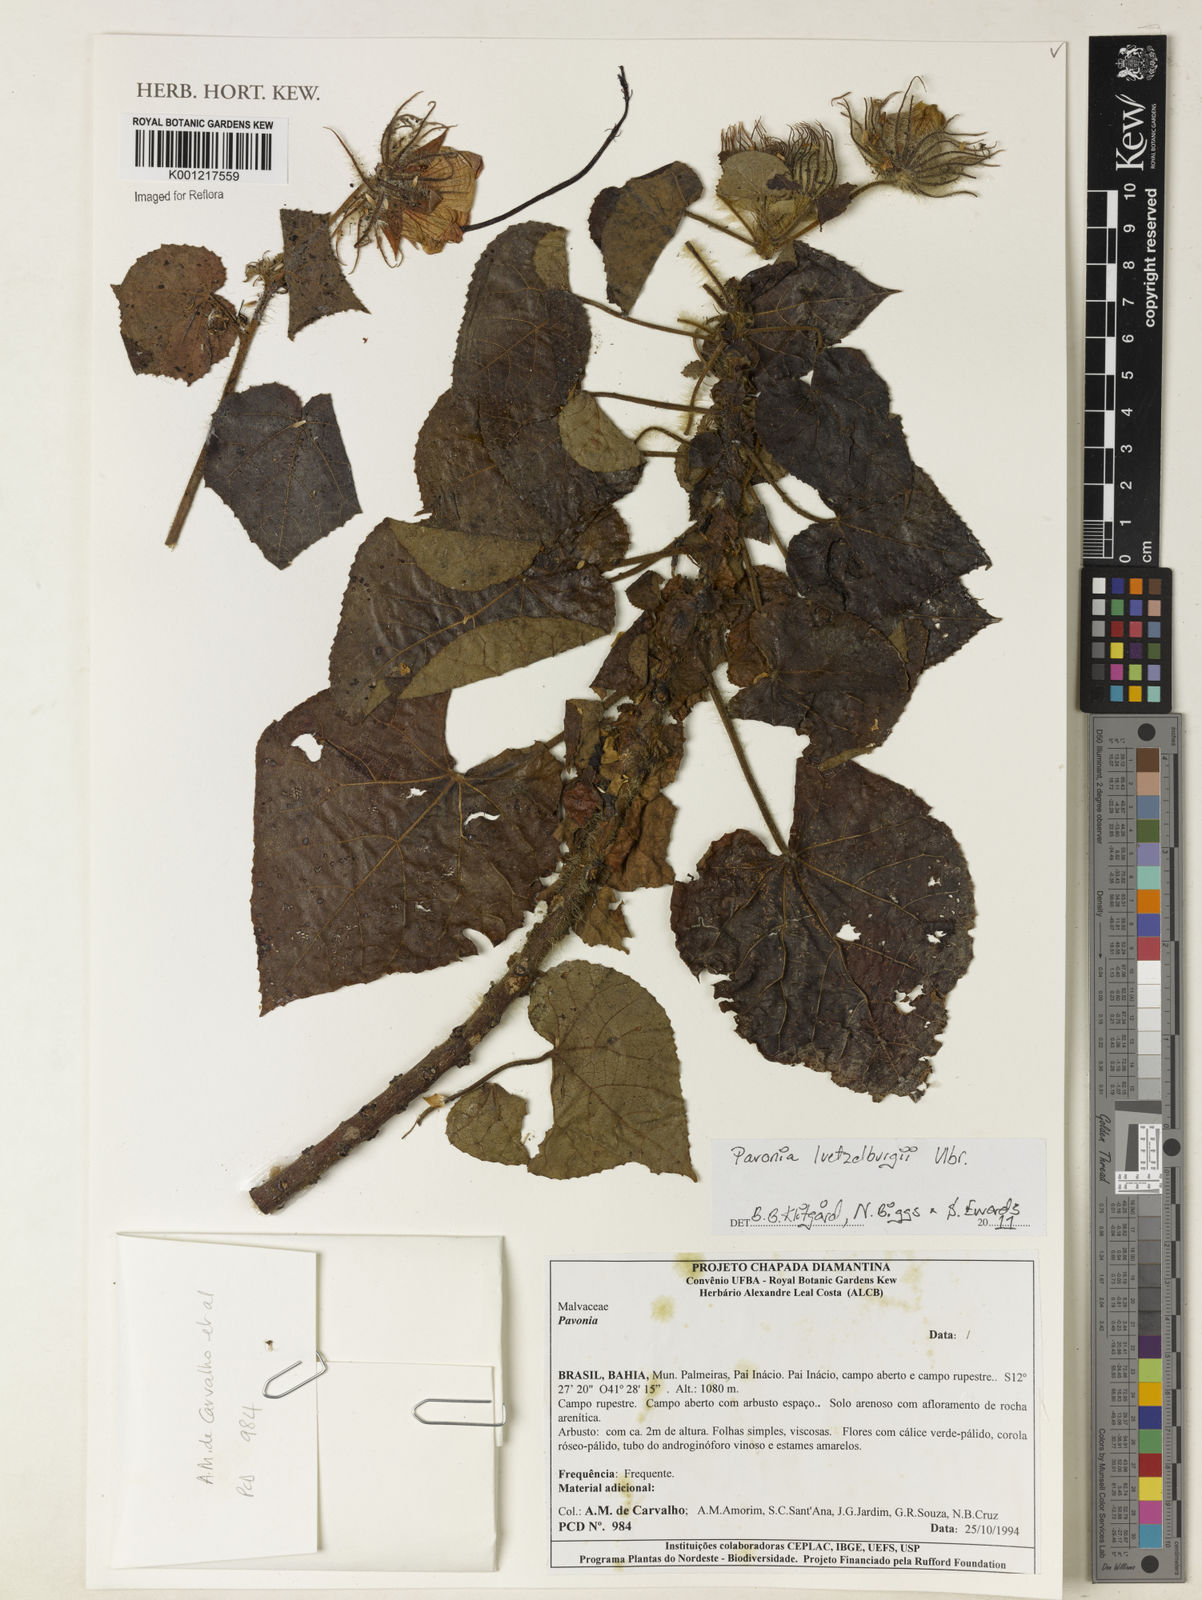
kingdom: Plantae
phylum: Tracheophyta
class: Magnoliopsida
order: Malvales
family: Malvaceae
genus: Pavonia
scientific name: Pavonia luetzelburgii
